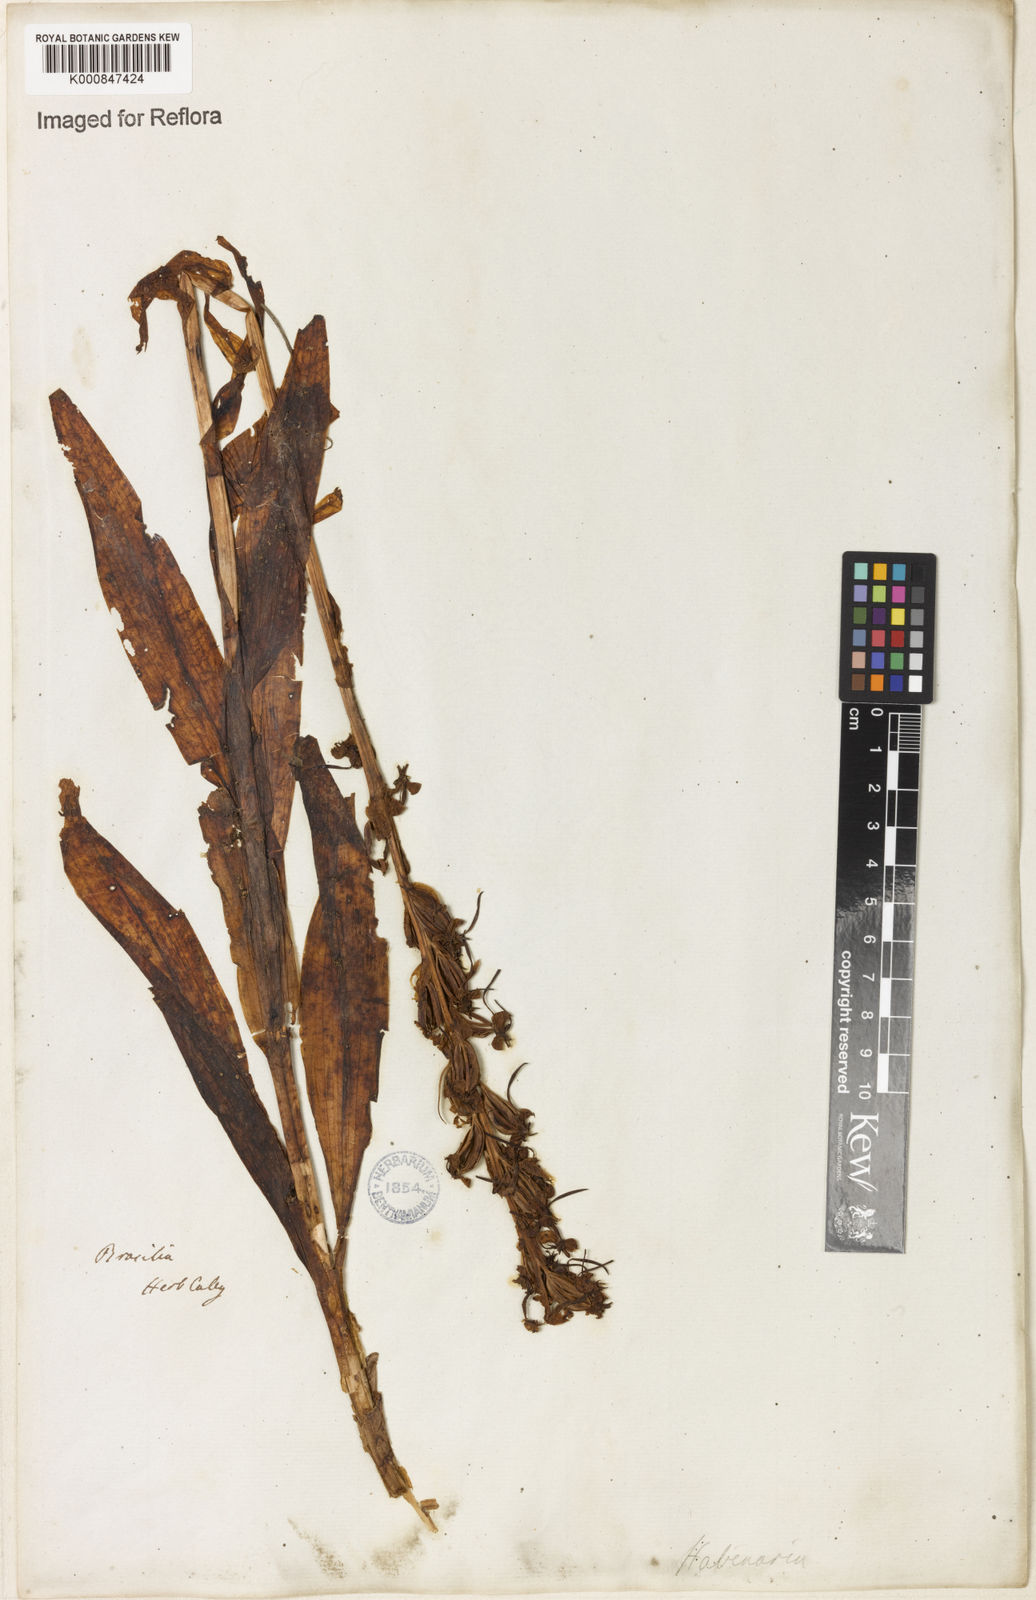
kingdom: Plantae
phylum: Tracheophyta
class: Liliopsida
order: Asparagales
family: Orchidaceae
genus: Habenaria
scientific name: Habenaria leptoceras
